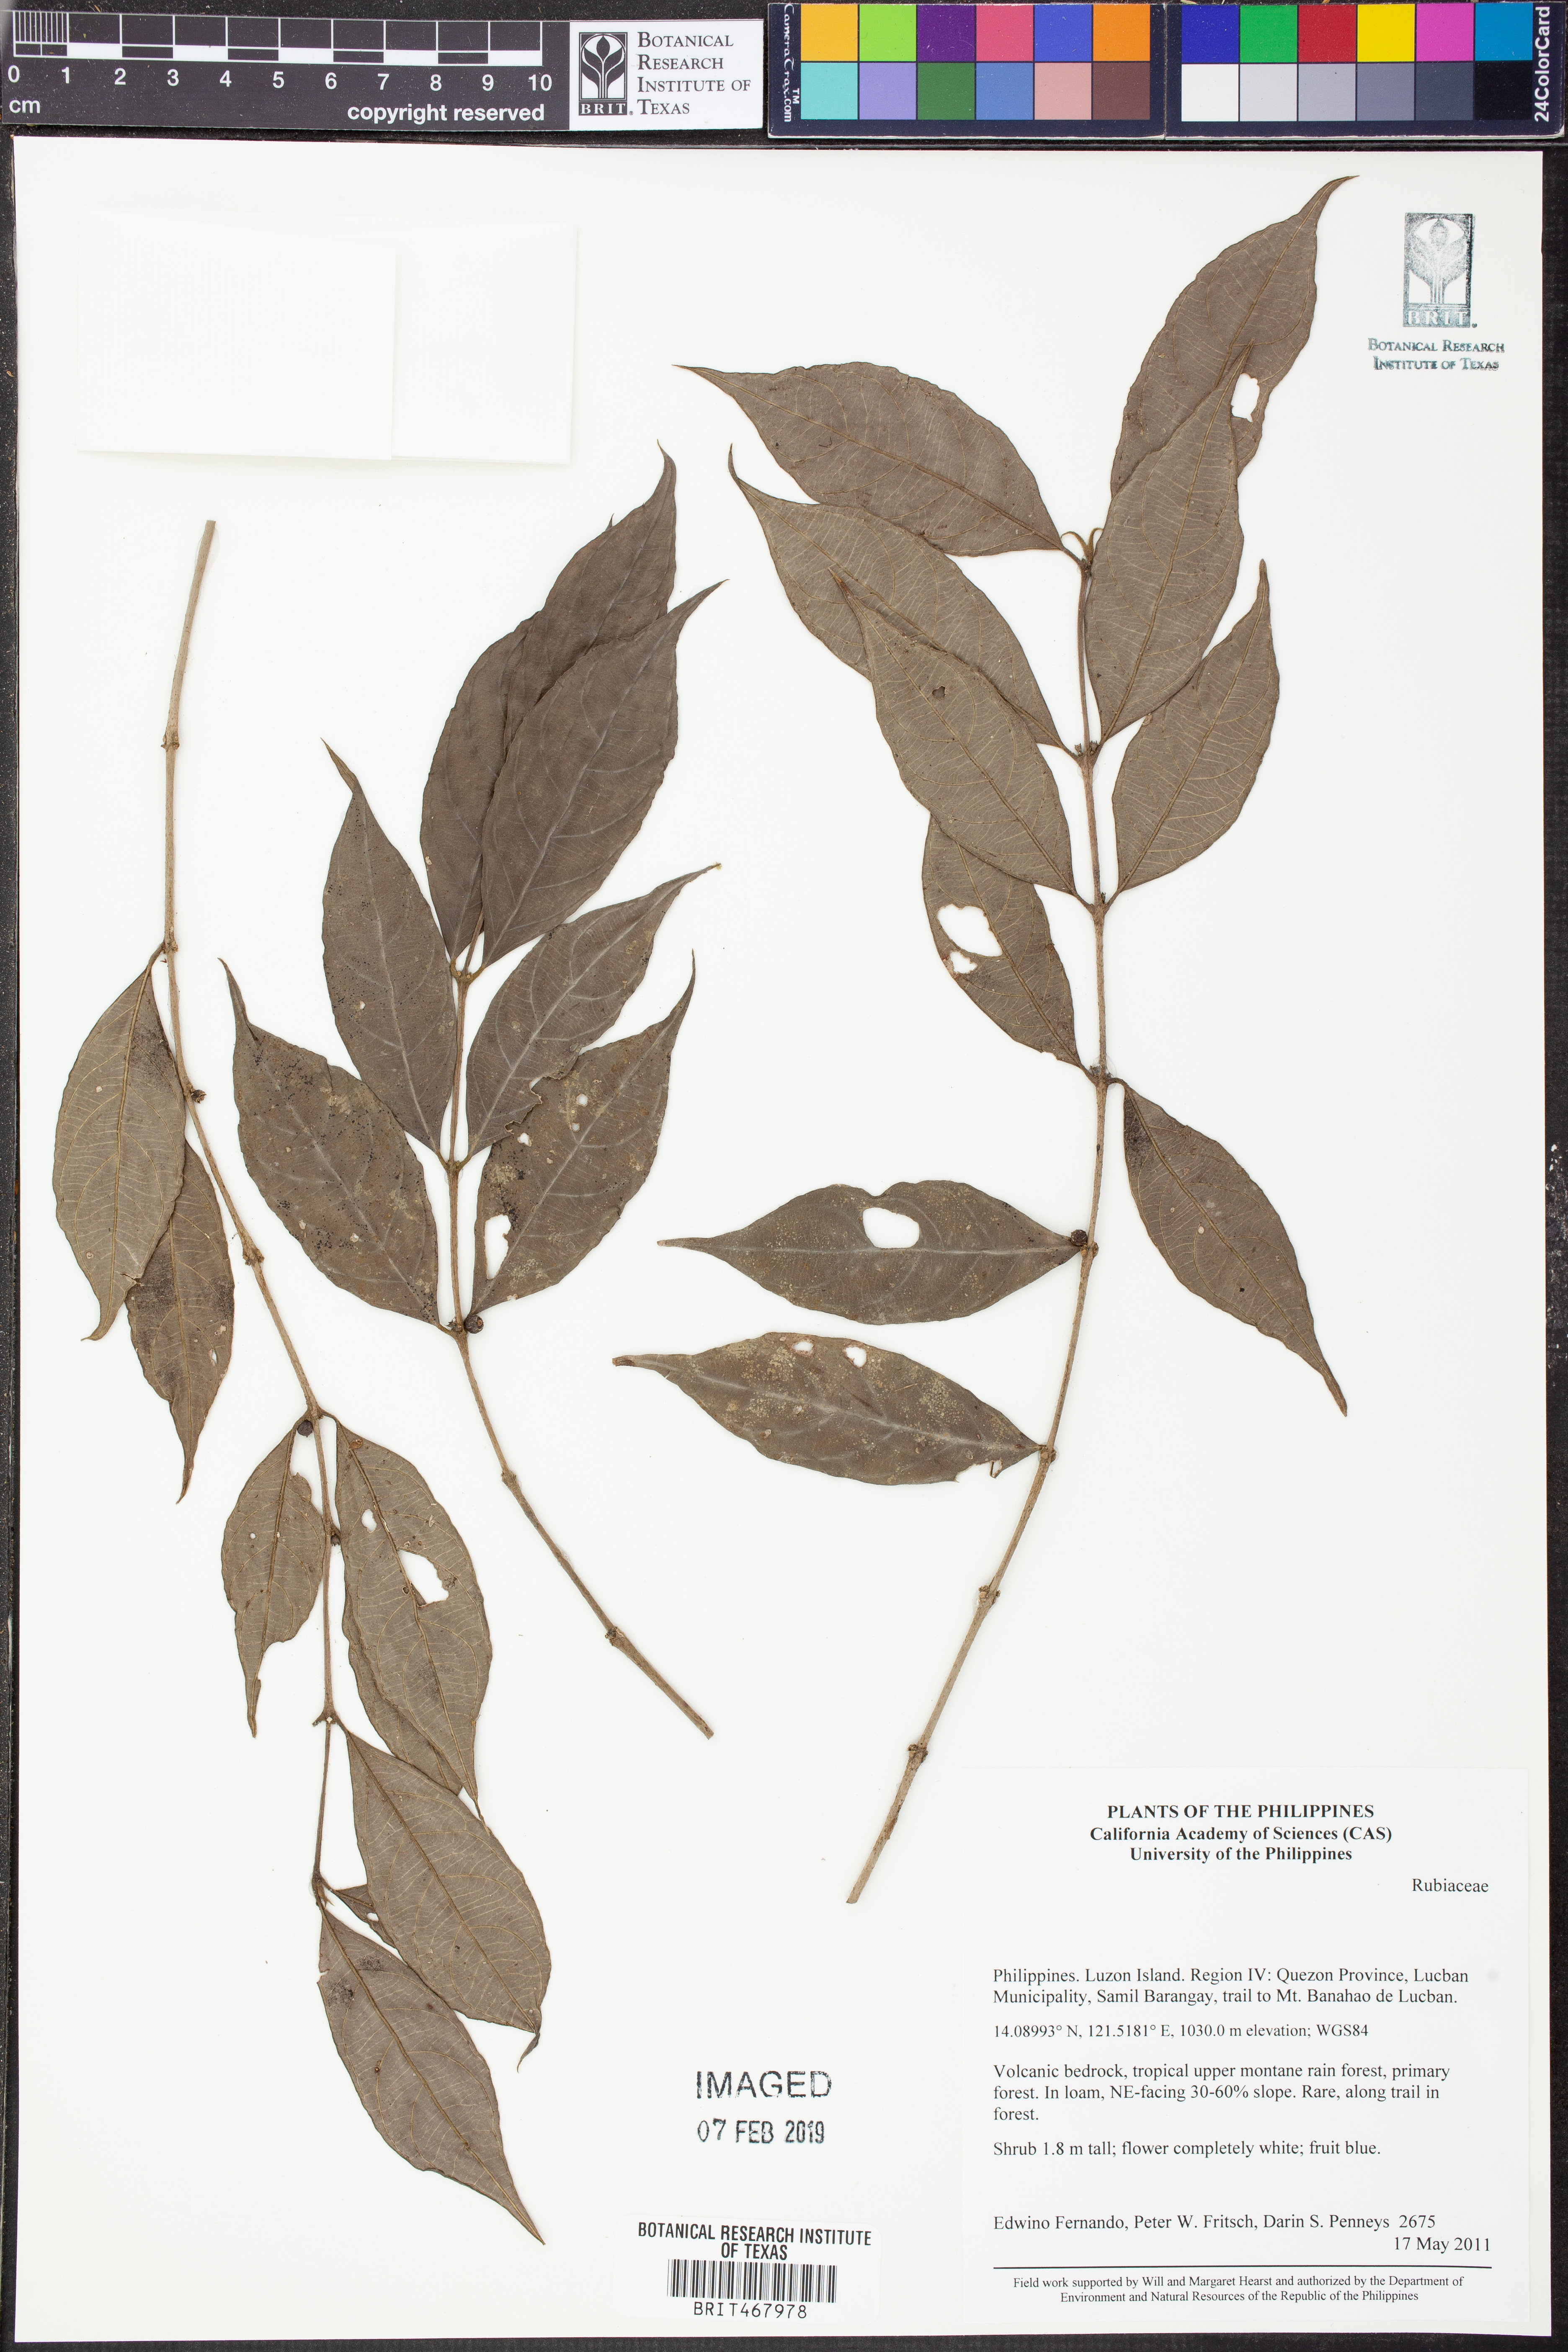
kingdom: Plantae
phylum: Tracheophyta
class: Magnoliopsida
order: Gentianales
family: Rubiaceae
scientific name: Rubiaceae
